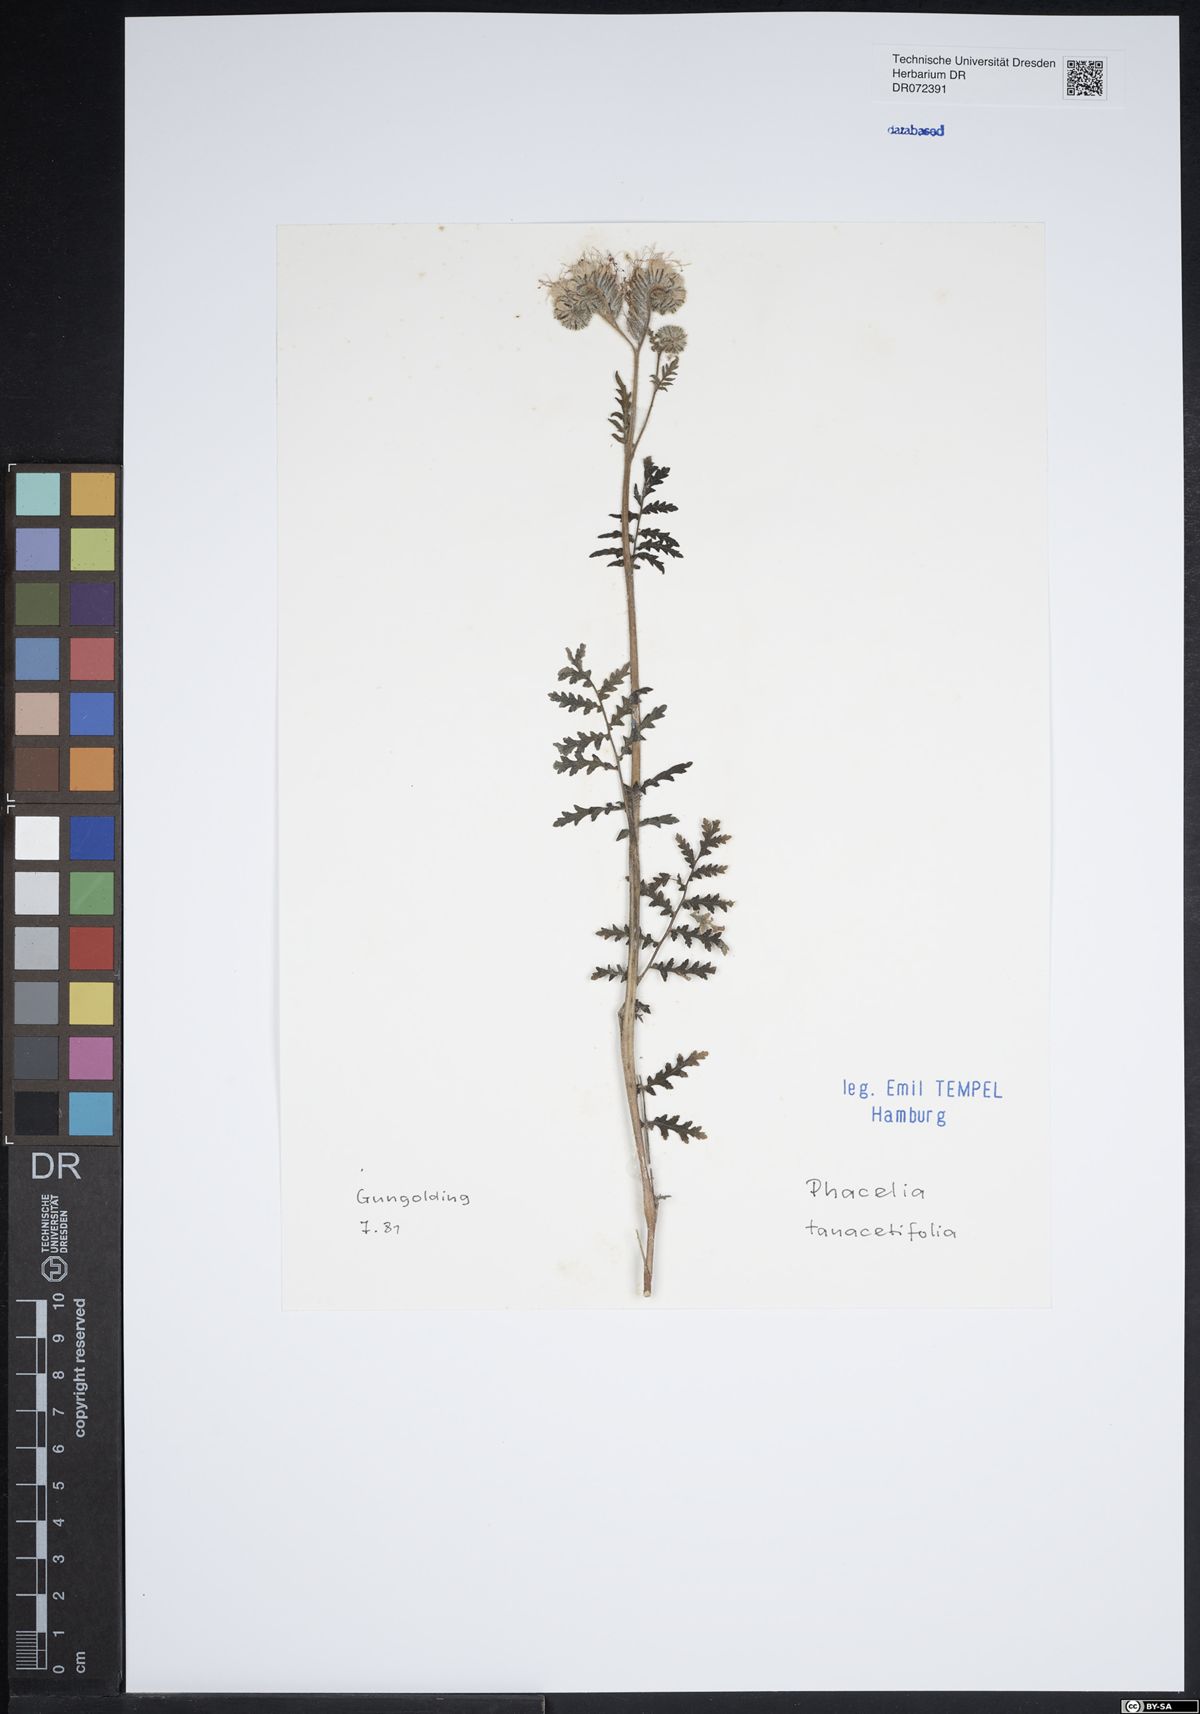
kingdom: Plantae
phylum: Tracheophyta
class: Magnoliopsida
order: Boraginales
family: Hydrophyllaceae
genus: Phacelia
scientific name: Phacelia tanacetifolia
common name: Phacelia
